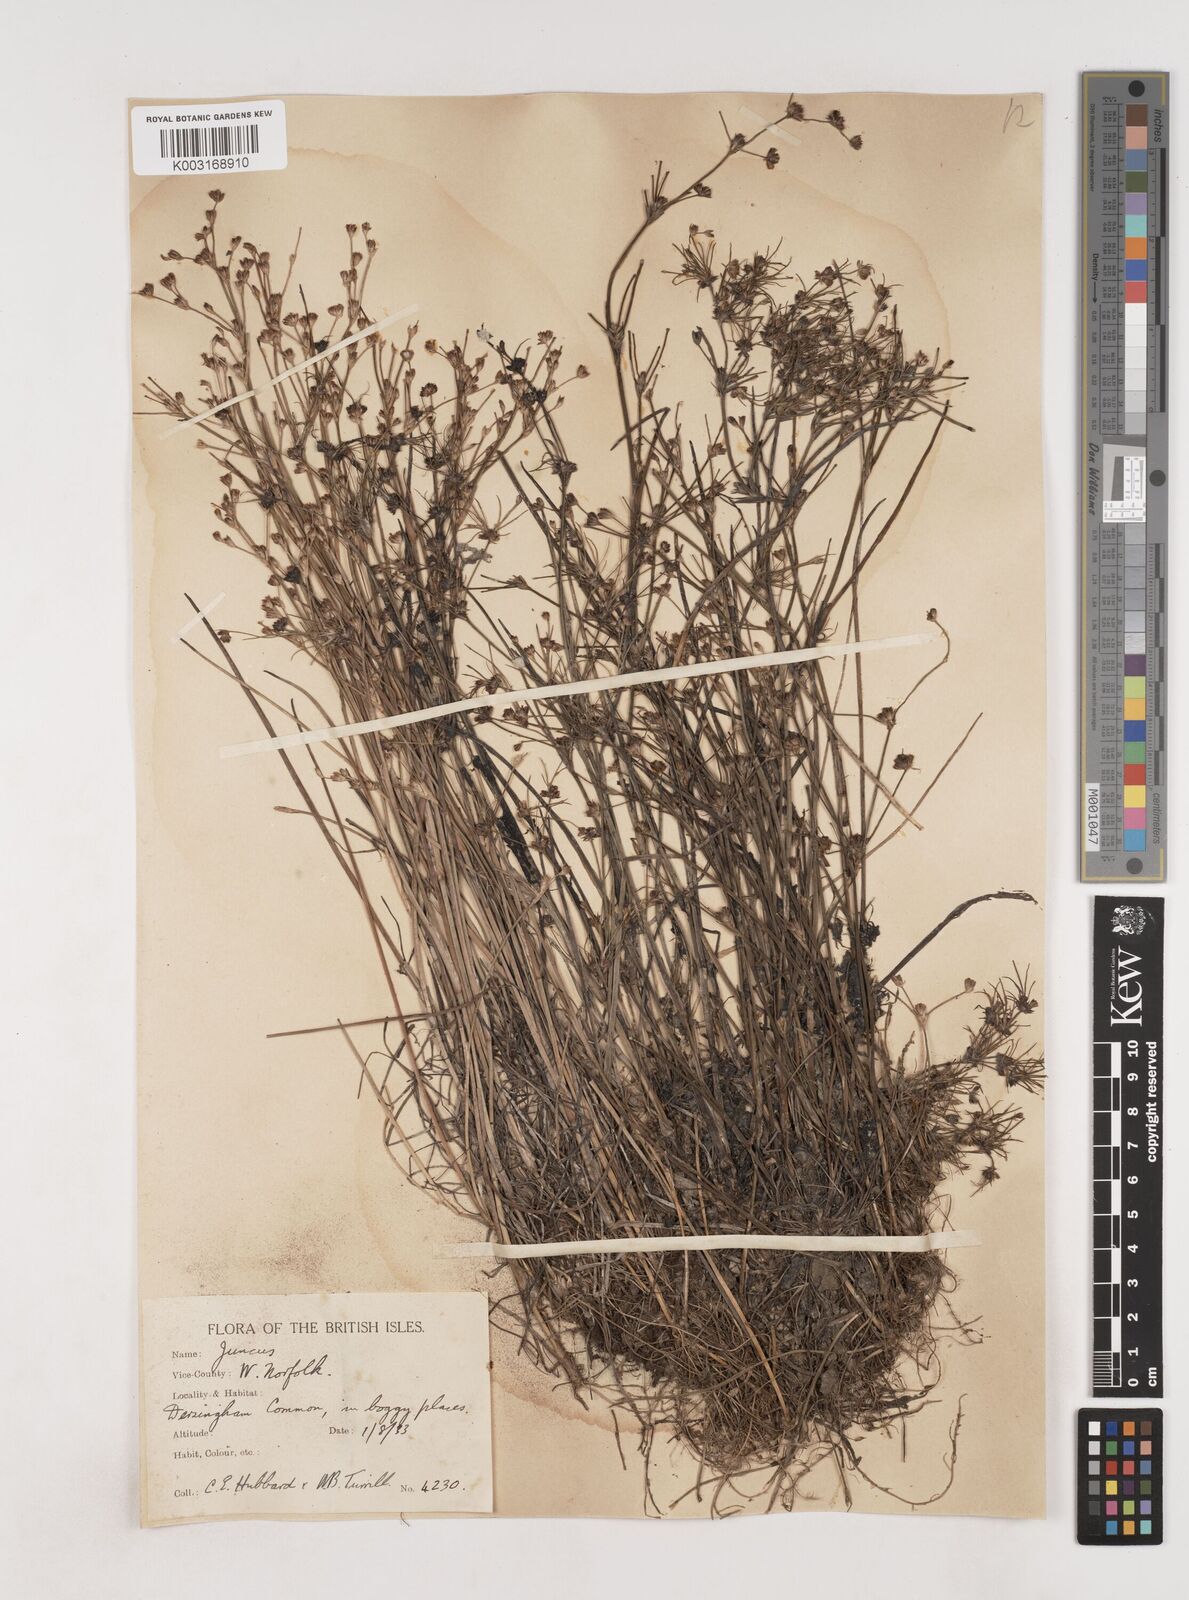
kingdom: Plantae
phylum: Tracheophyta
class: Liliopsida
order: Poales
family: Juncaceae
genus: Juncus
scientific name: Juncus bulbosus
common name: Bulbous rush
